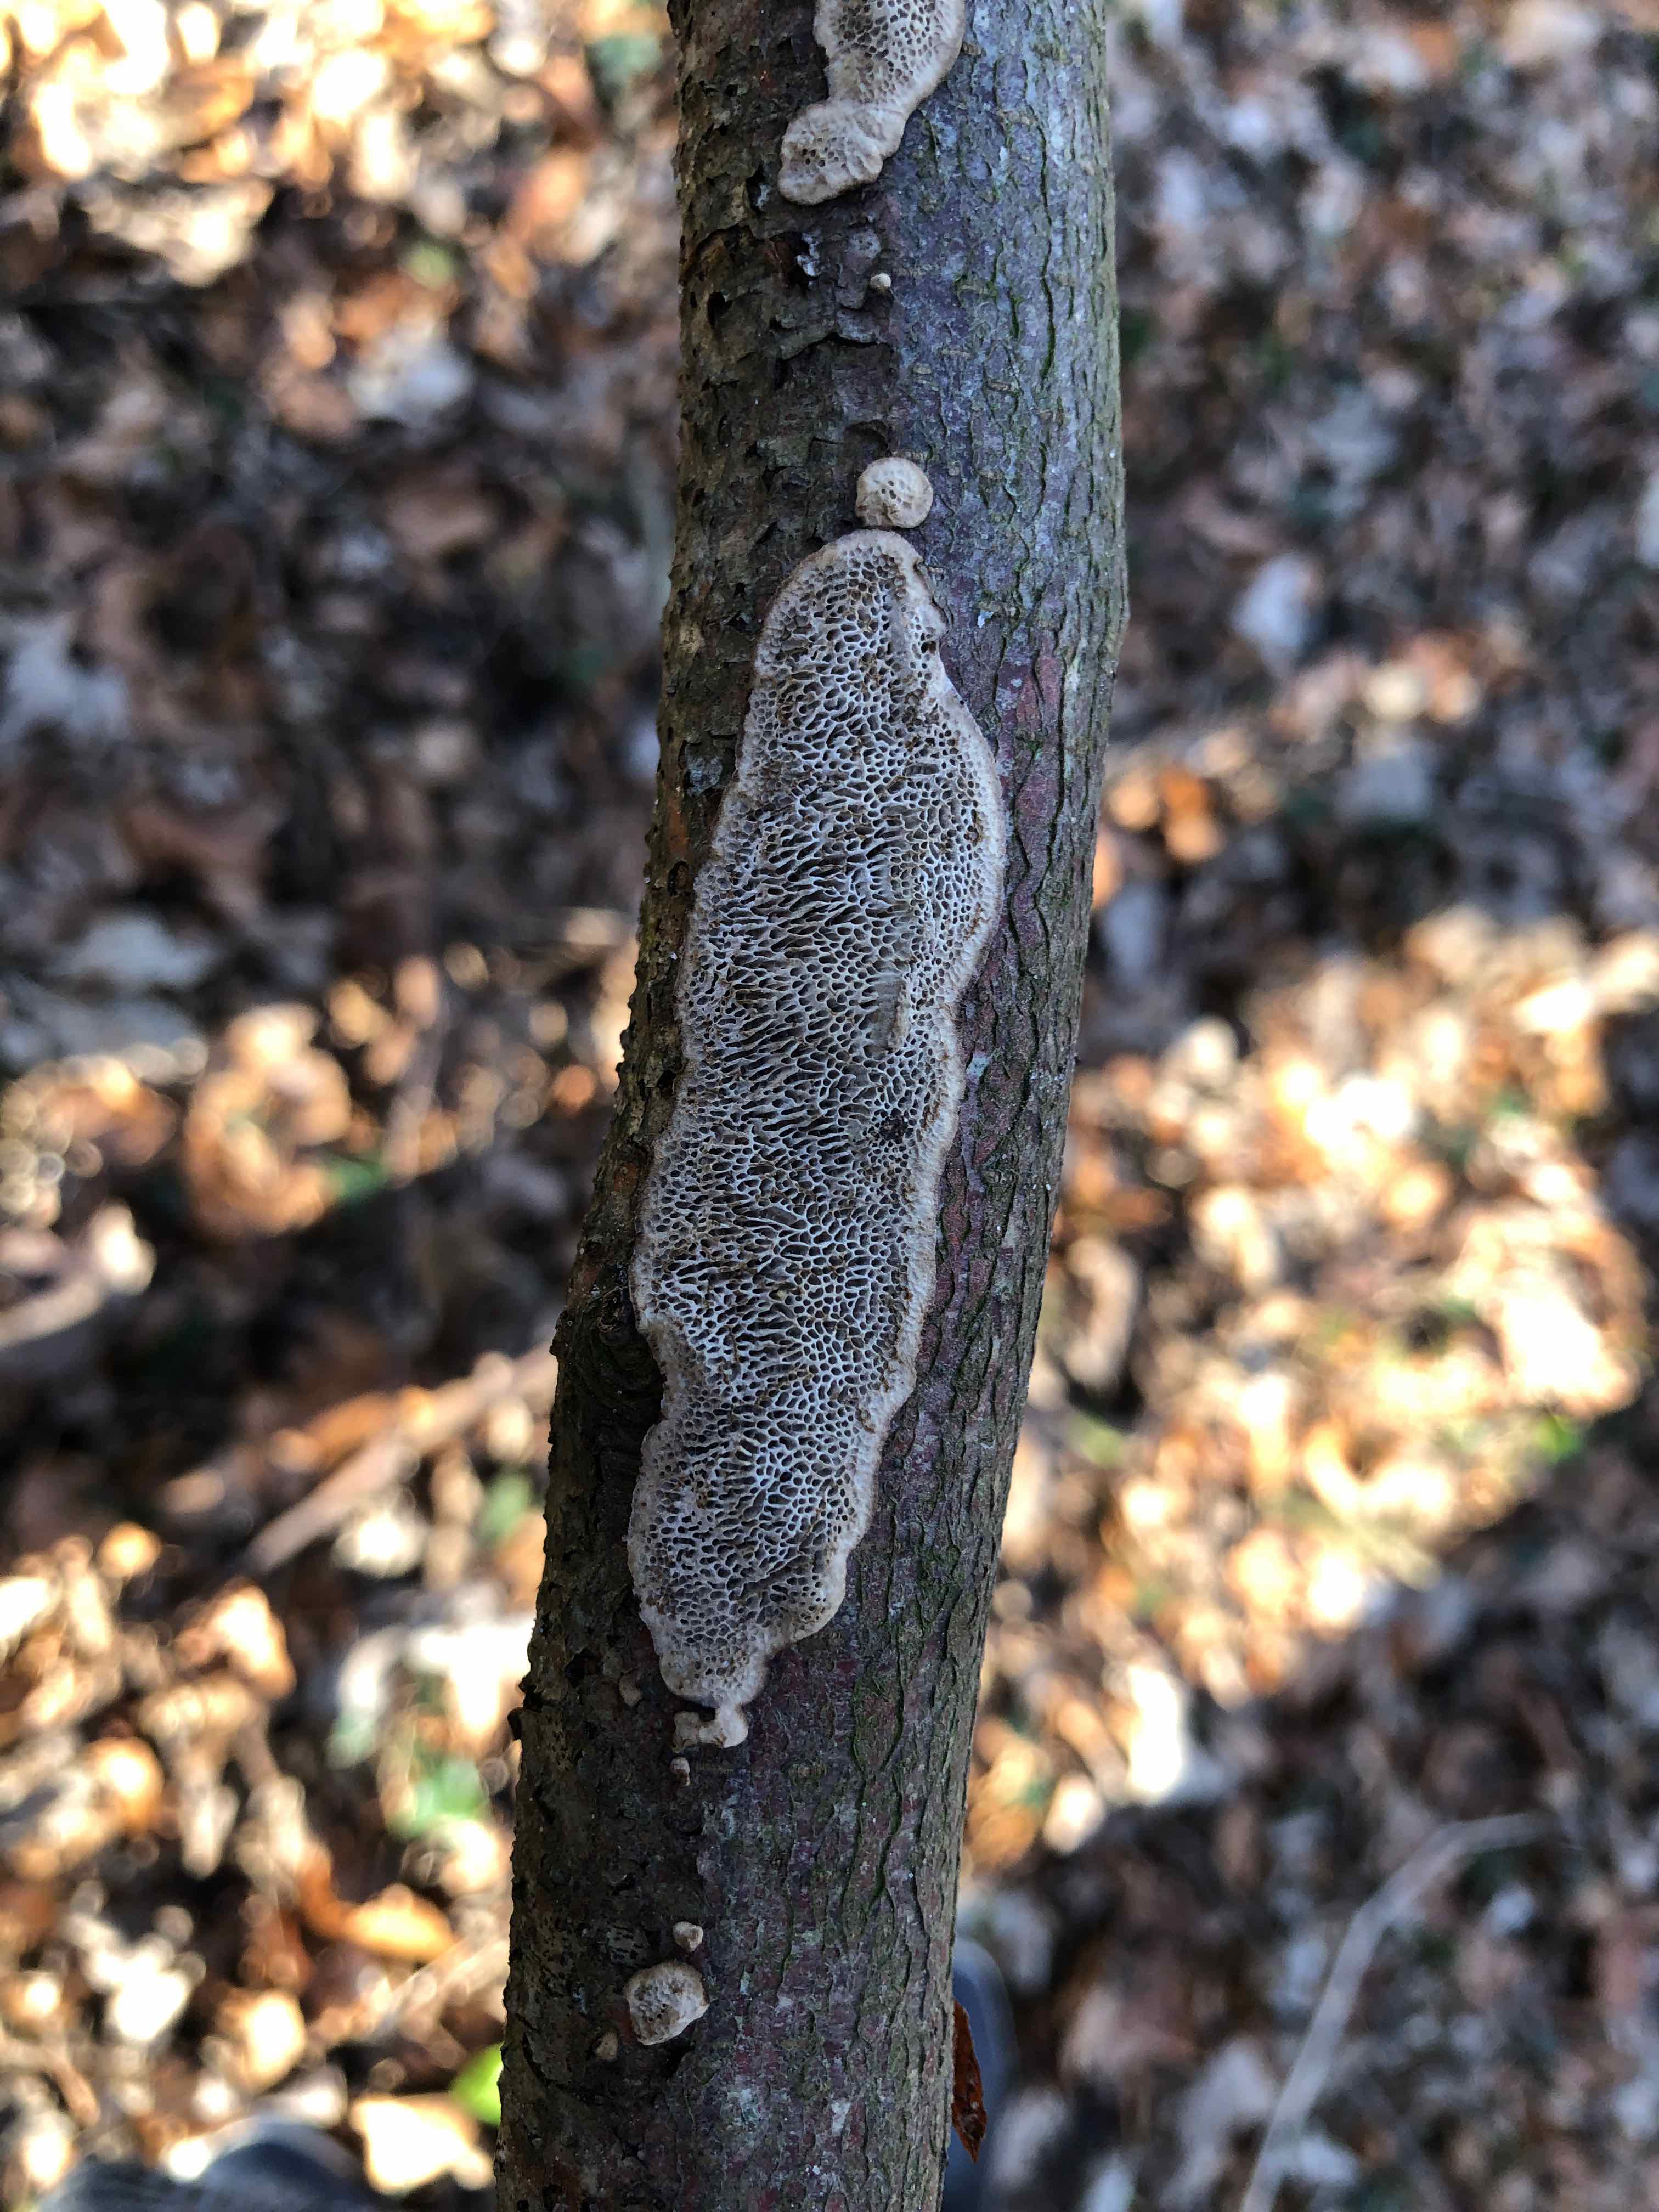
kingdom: Fungi
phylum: Basidiomycota
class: Agaricomycetes
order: Polyporales
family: Polyporaceae
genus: Podofomes
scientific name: Podofomes mollis
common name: blød begporesvamp
